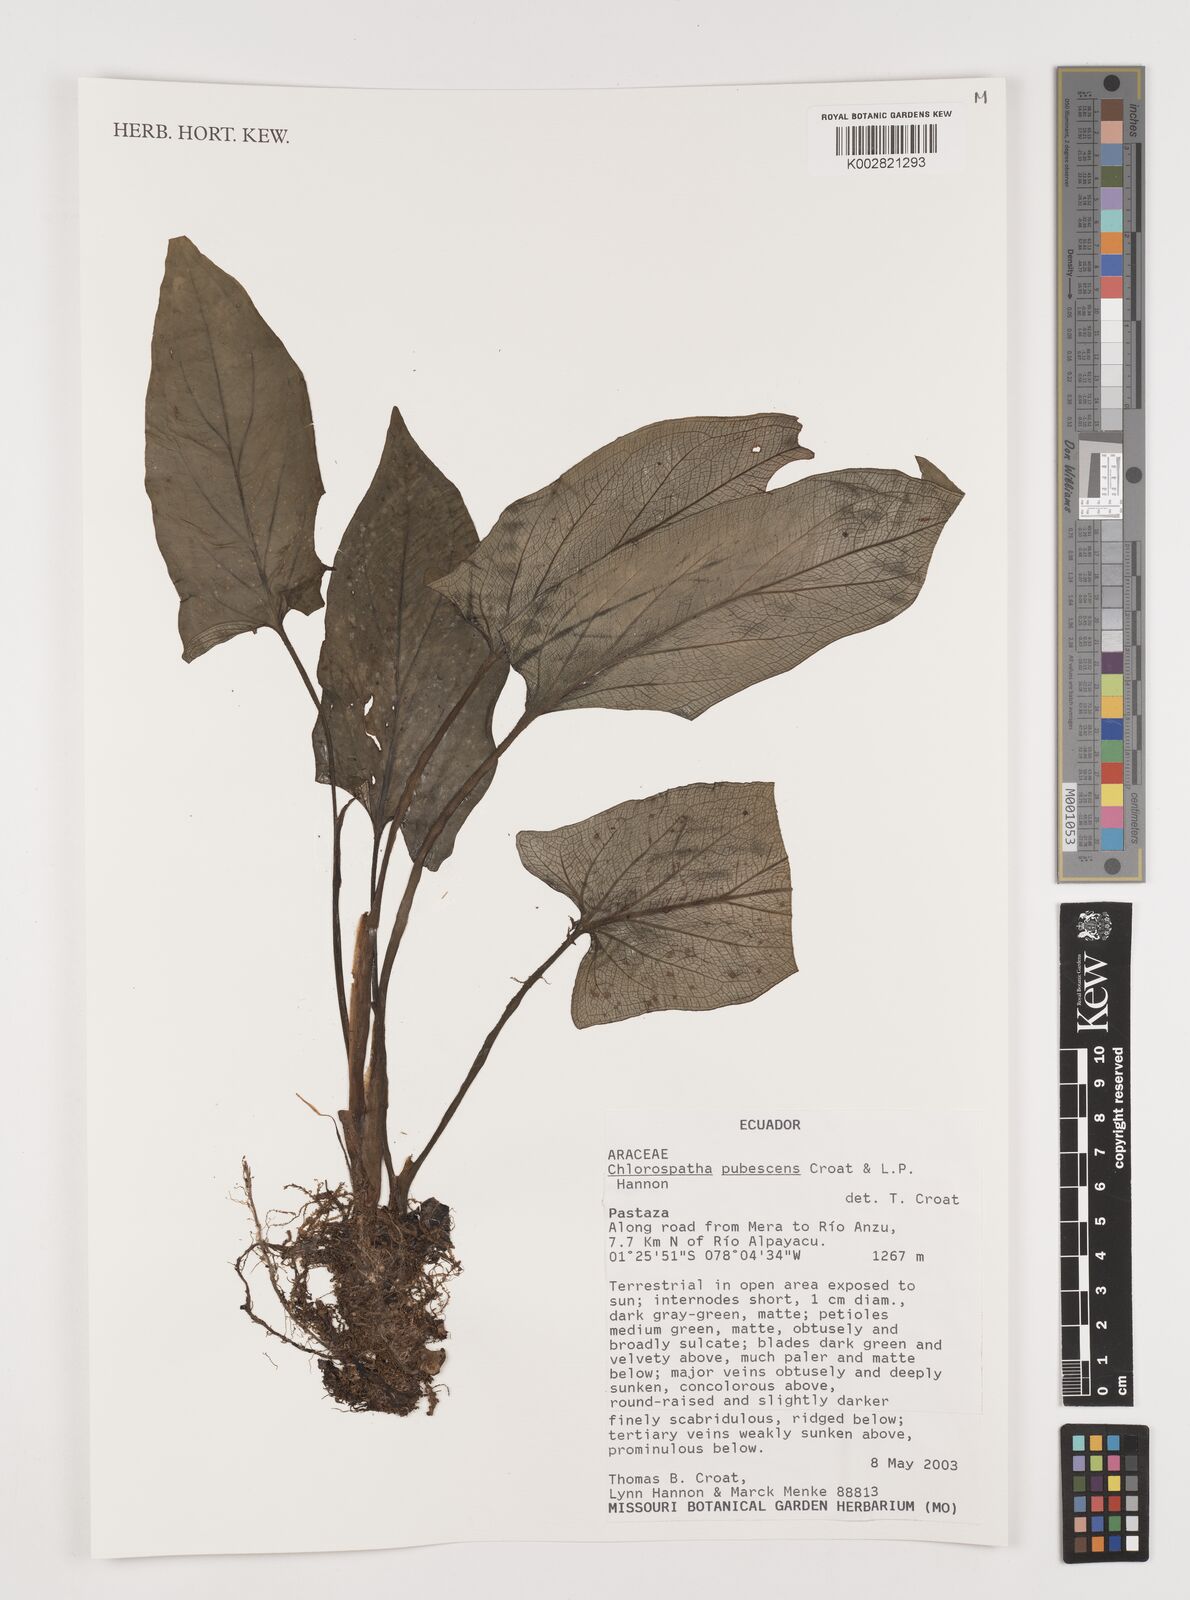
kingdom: Plantae
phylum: Tracheophyta
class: Liliopsida
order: Alismatales
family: Araceae
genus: Chlorospatha
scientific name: Chlorospatha pubescens
